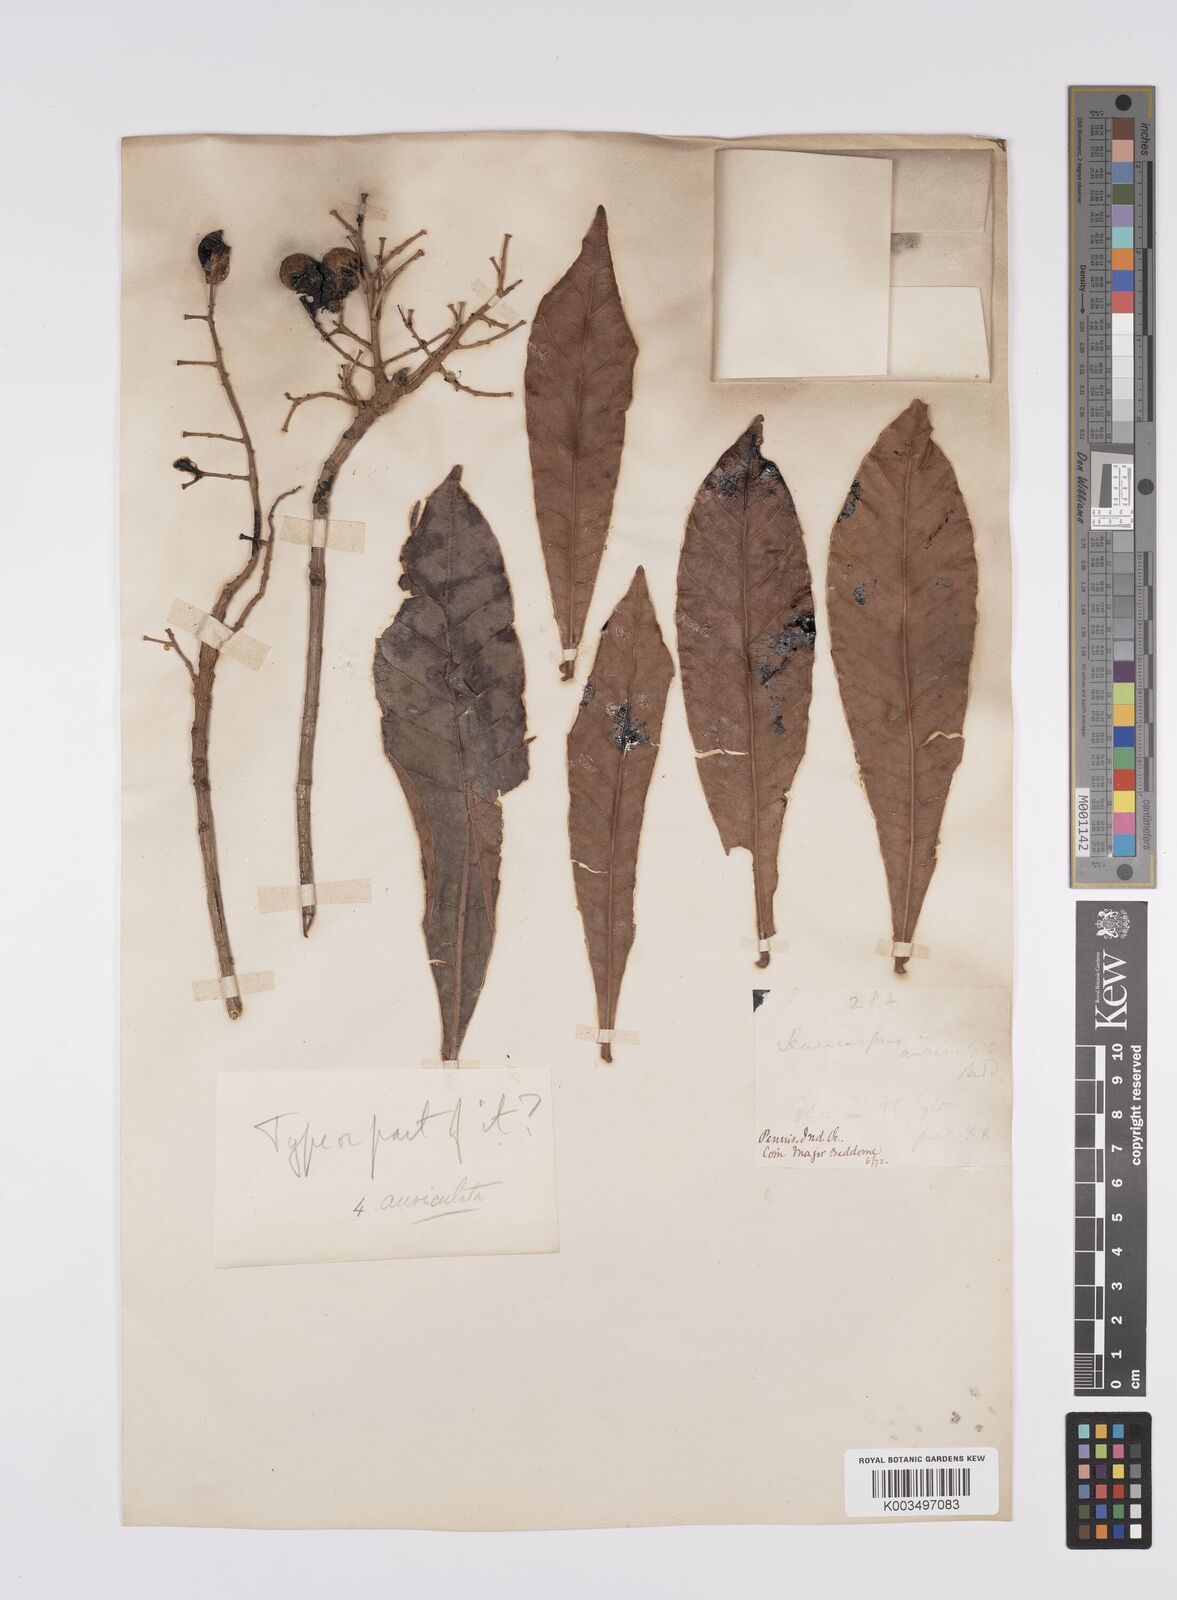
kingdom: Plantae
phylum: Tracheophyta
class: Magnoliopsida
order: Sapindales
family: Anacardiaceae
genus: Semecarpus
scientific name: Semecarpus auriculatus
